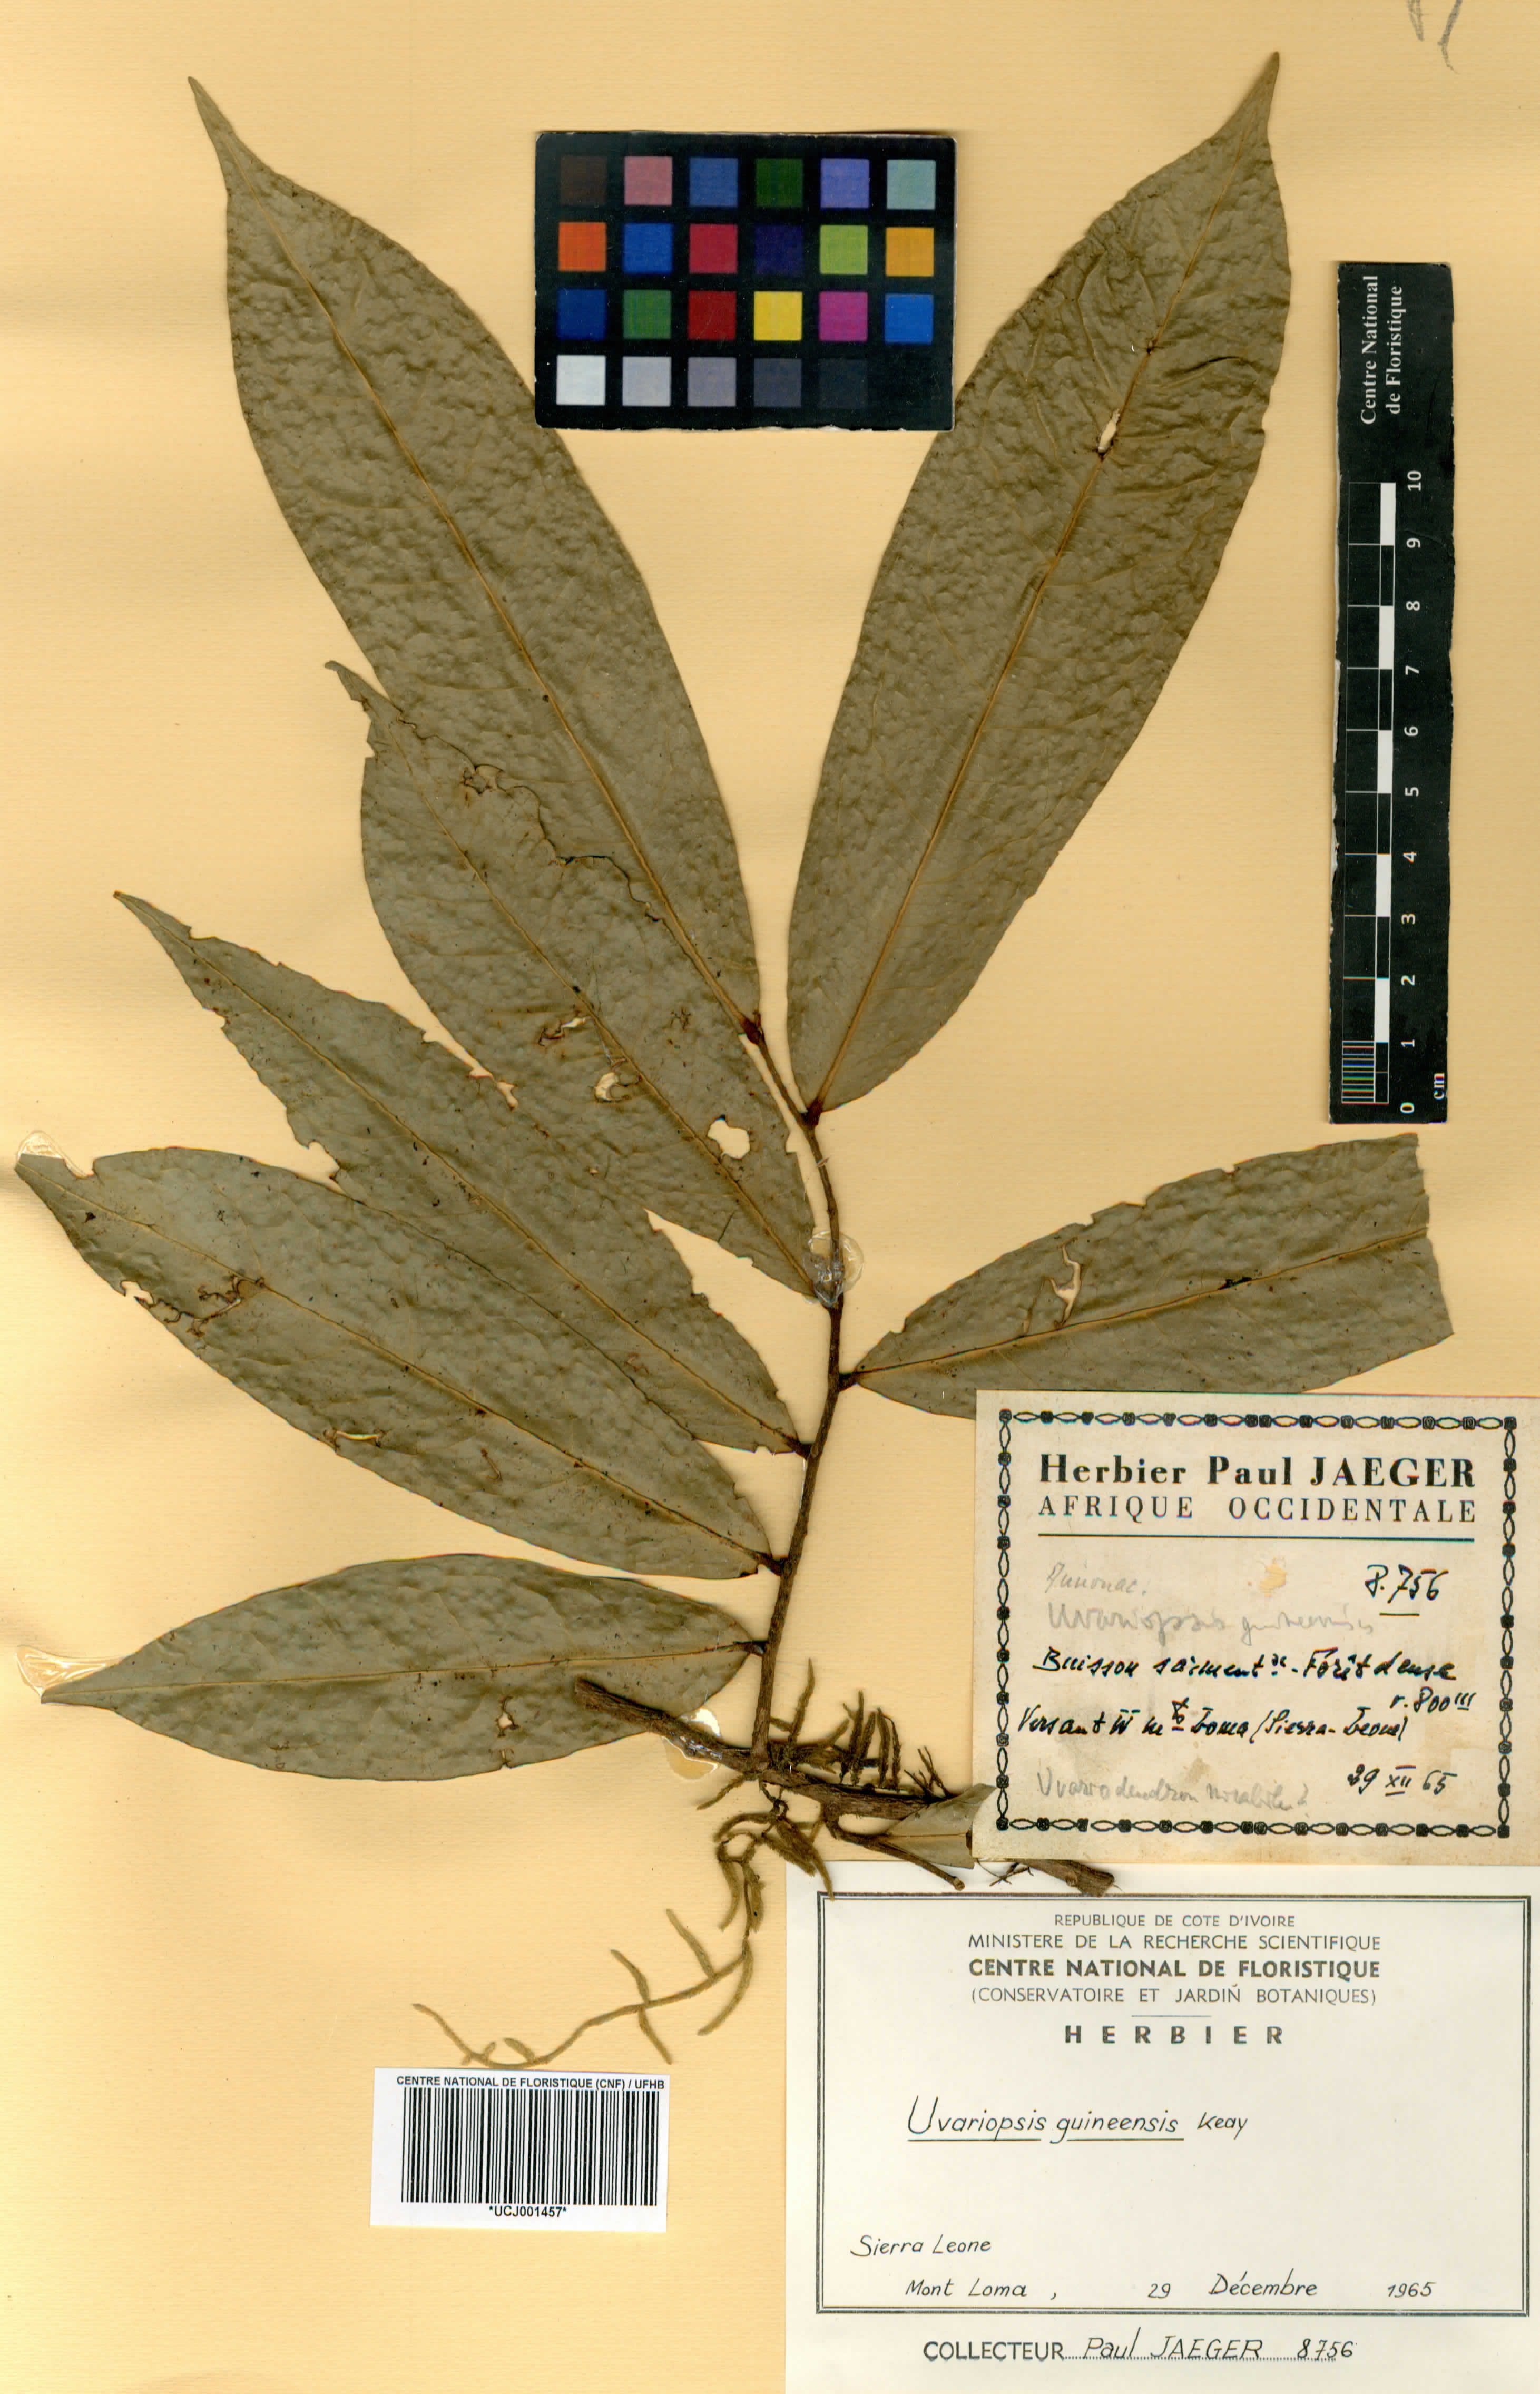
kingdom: Plantae
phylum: Tracheophyta
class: Magnoliopsida
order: Magnoliales
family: Annonaceae
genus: Uvariopsis
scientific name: Uvariopsis guineensis
